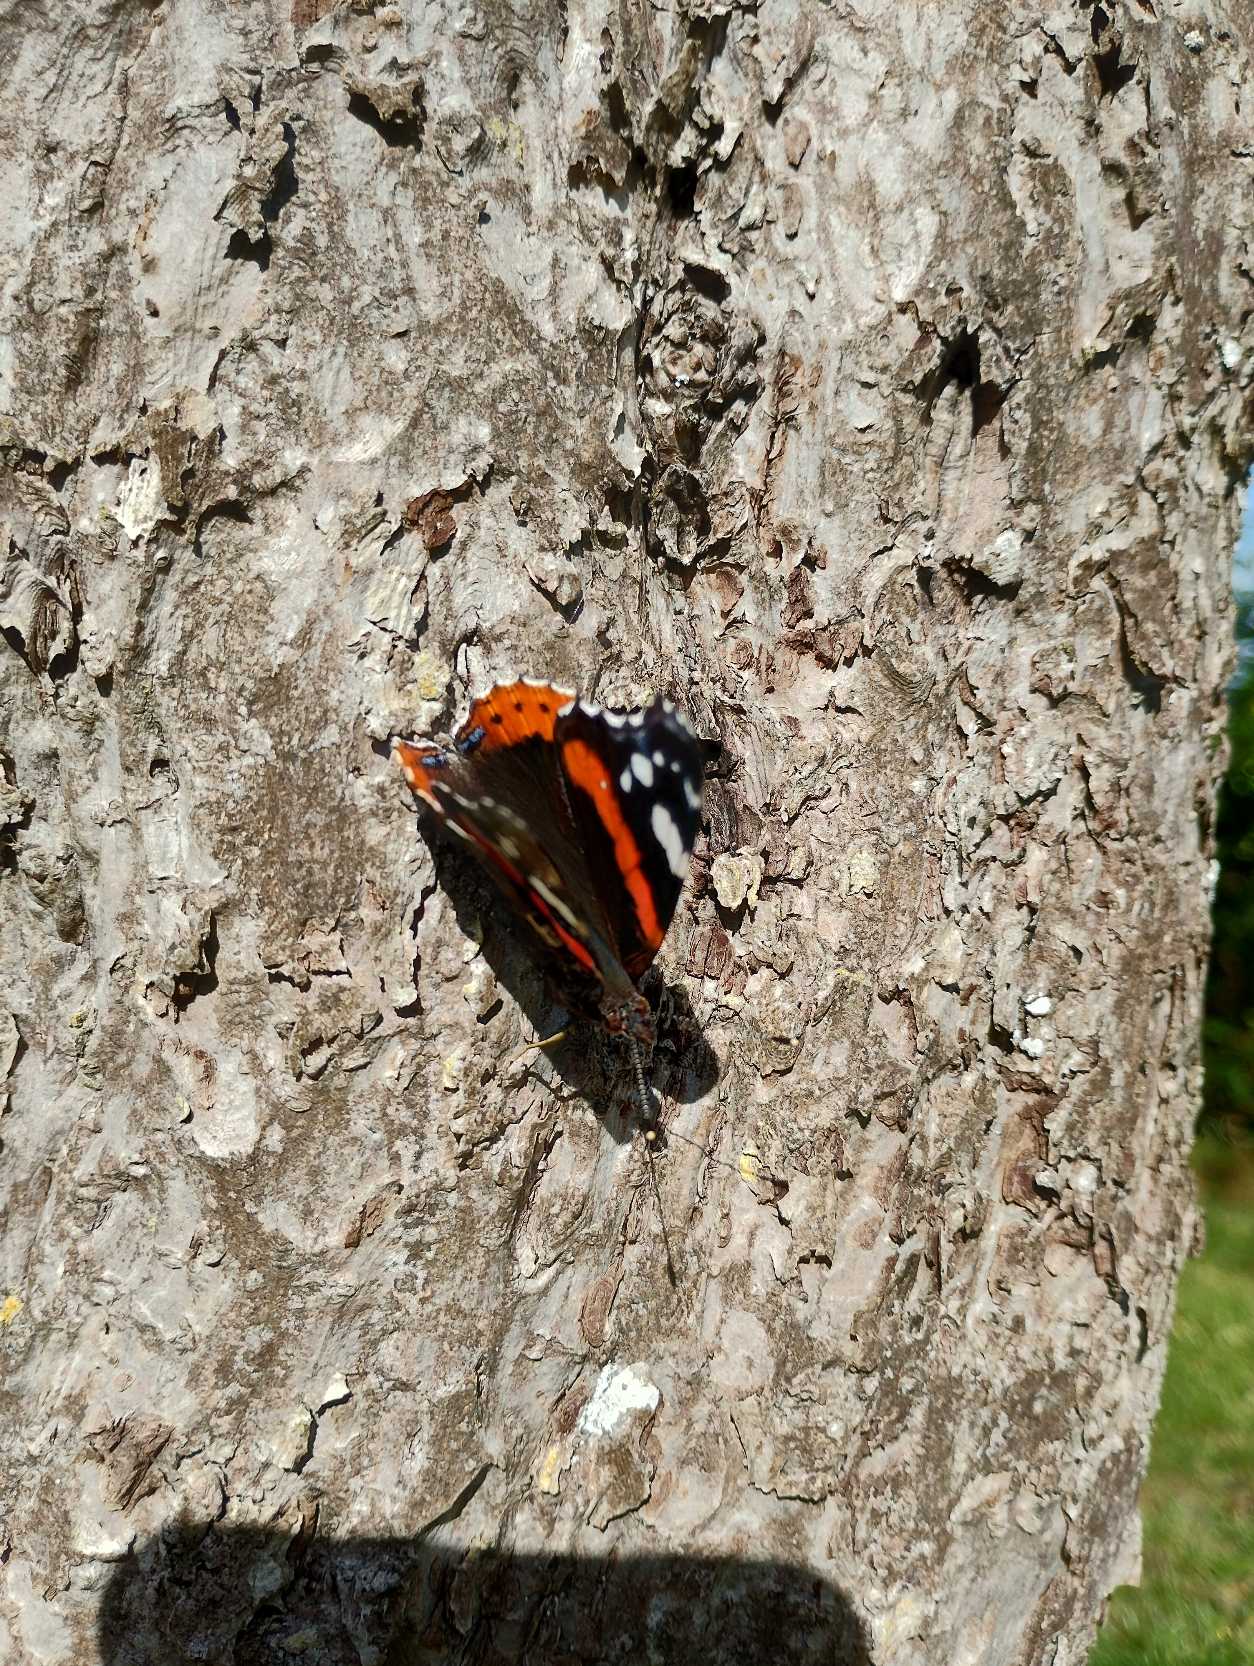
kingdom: Animalia
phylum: Arthropoda
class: Insecta
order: Lepidoptera
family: Nymphalidae
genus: Vanessa
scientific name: Vanessa atalanta
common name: Admiral
